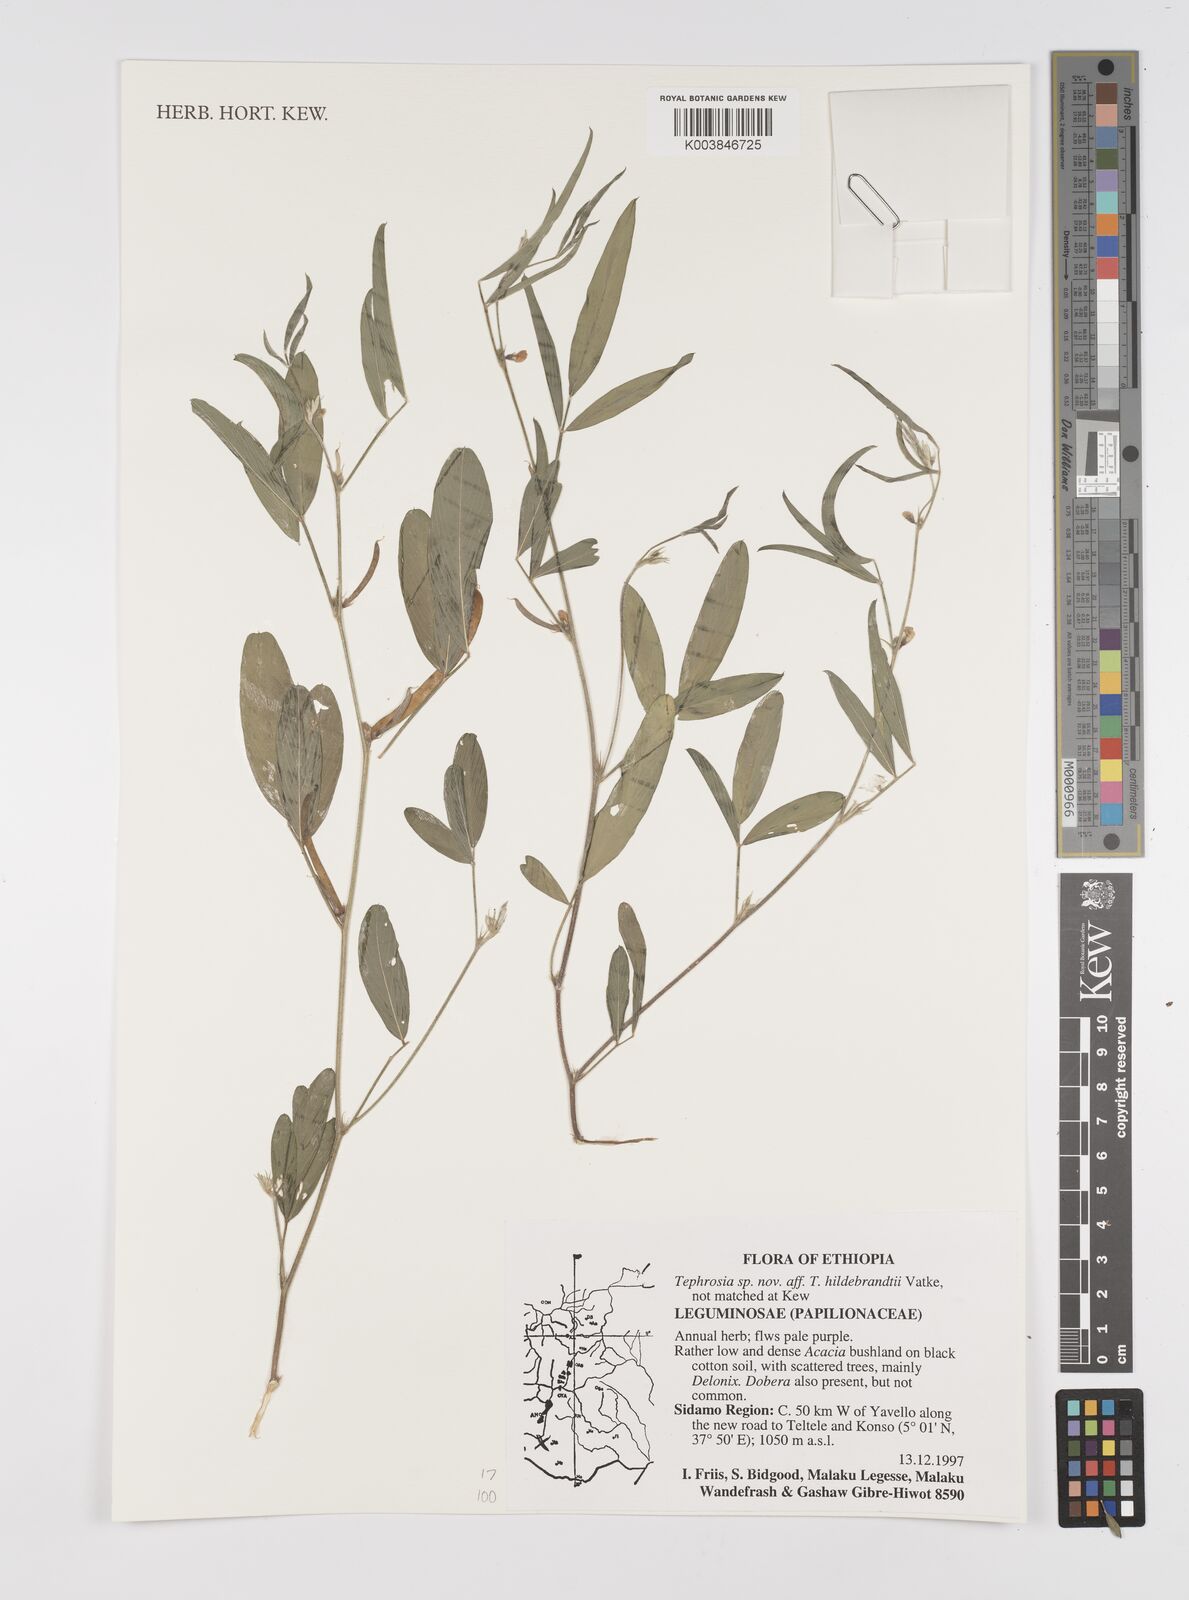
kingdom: Plantae
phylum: Tracheophyta
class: Magnoliopsida
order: Fabales
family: Fabaceae
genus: Tephrosia
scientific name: Tephrosia hildebrandtii
